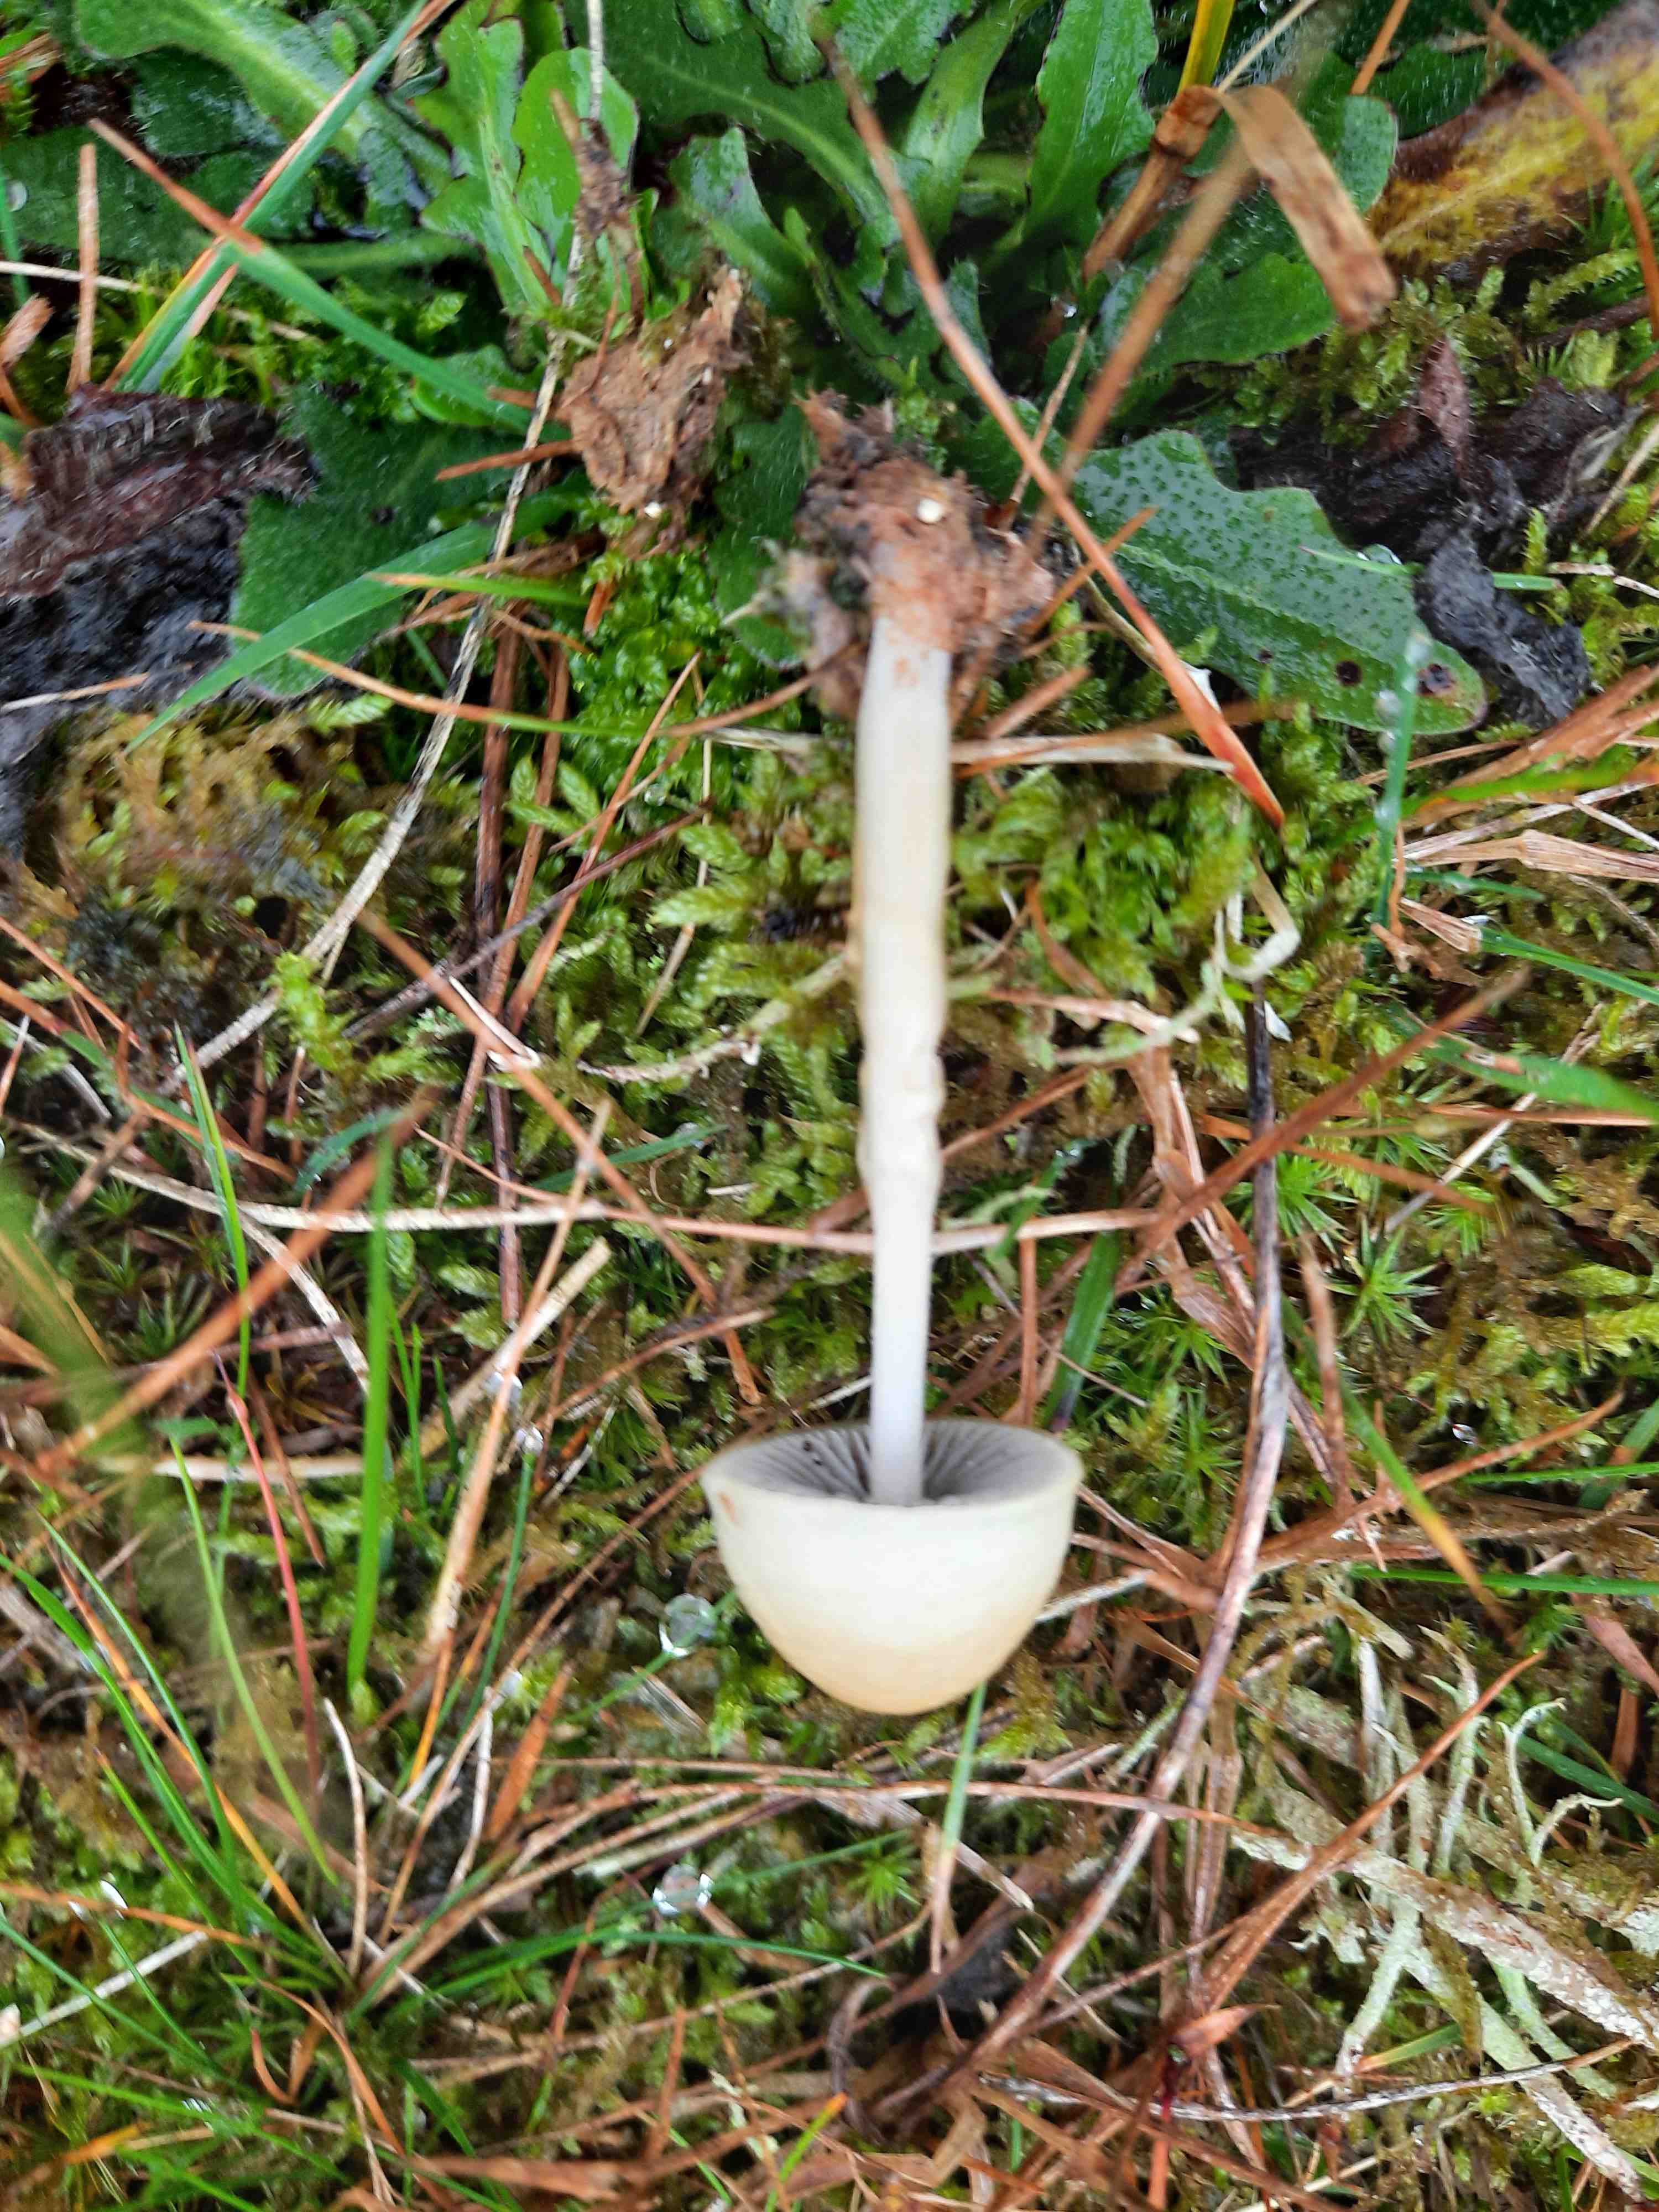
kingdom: Fungi
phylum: Basidiomycota
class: Agaricomycetes
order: Agaricales
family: Strophariaceae
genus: Protostropharia
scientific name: Protostropharia semiglobata
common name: halvkugleformet bredblad
